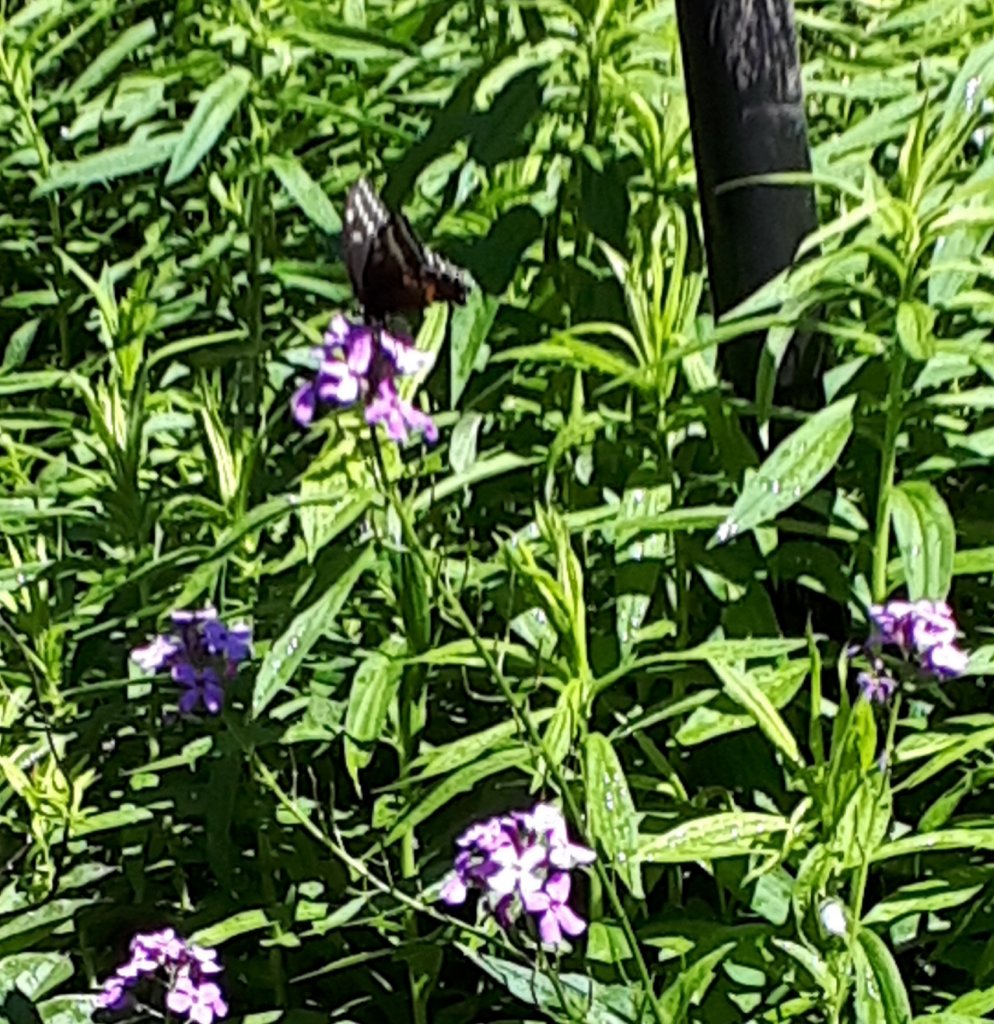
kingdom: Animalia
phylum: Arthropoda
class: Insecta
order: Lepidoptera
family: Papilionidae
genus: Papilio
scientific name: Papilio polyxenes
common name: Black Swallowtail
